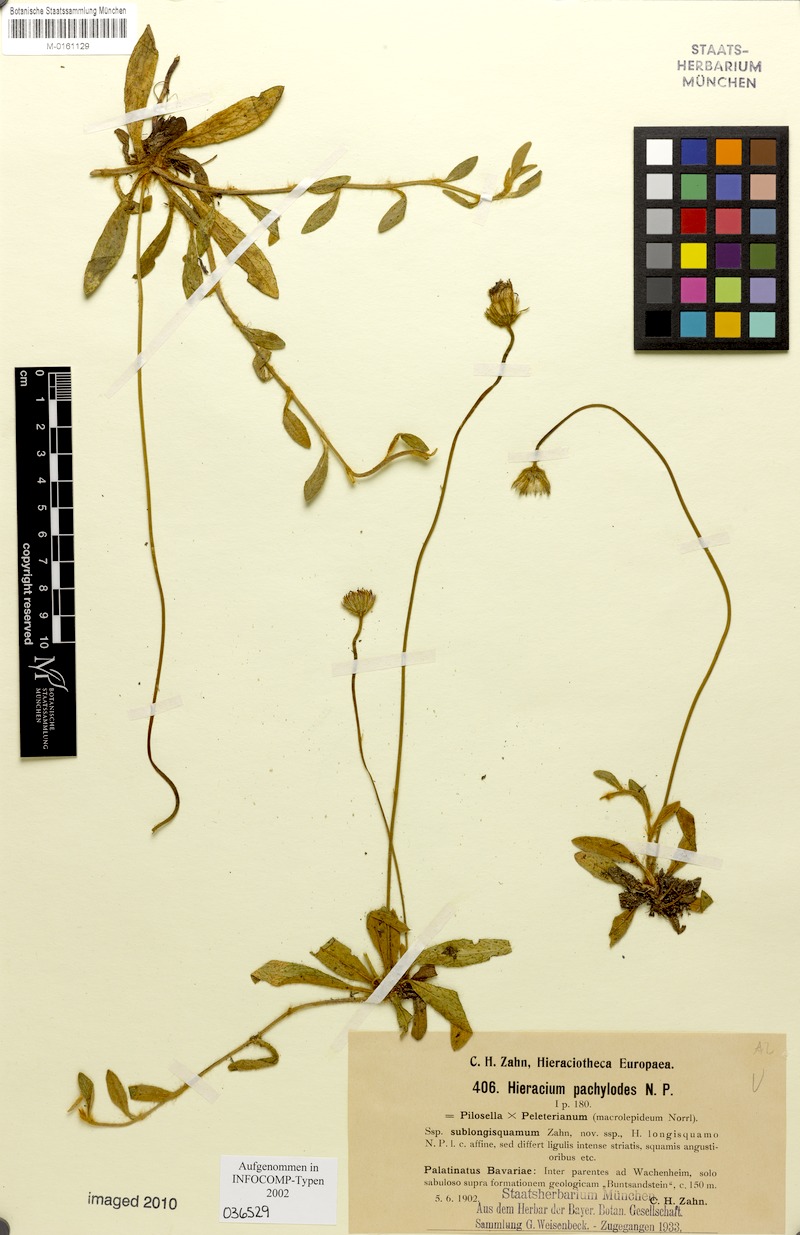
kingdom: Plantae
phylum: Tracheophyta
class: Magnoliopsida
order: Asterales
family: Asteraceae
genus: Pilosella
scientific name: Pilosella longisquama
